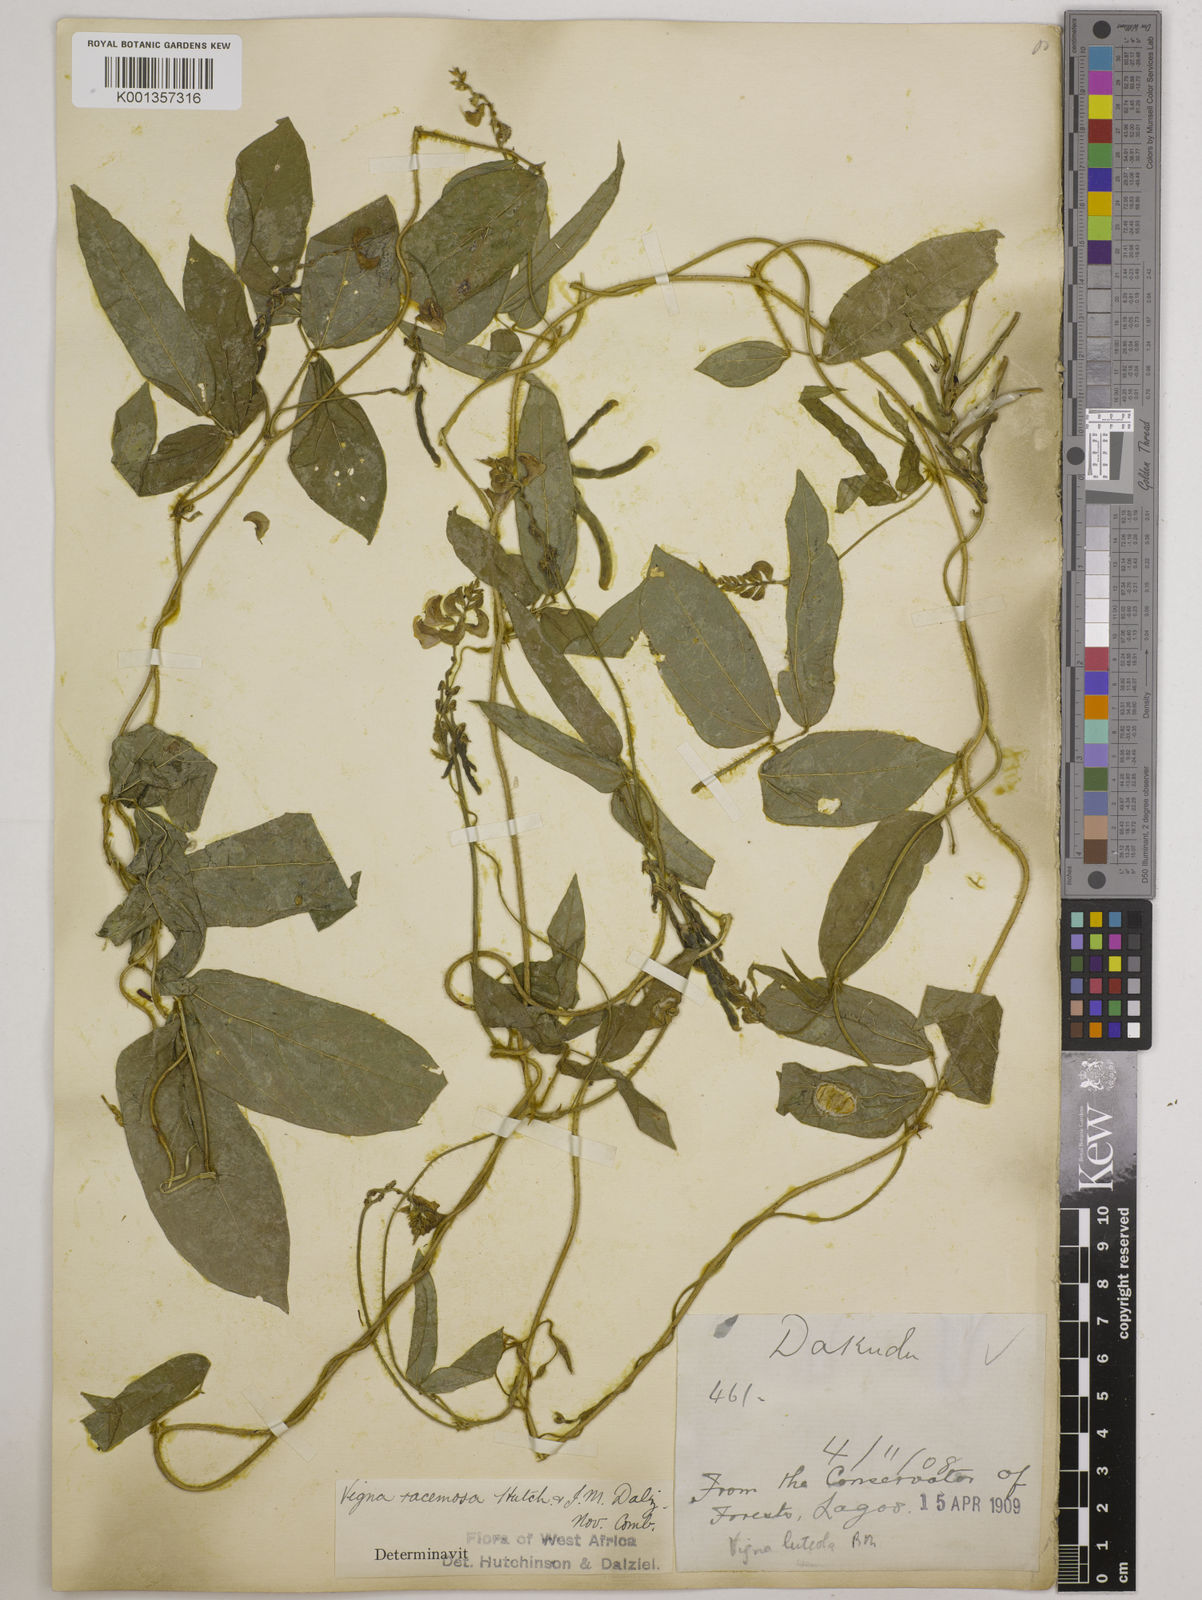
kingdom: Plantae
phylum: Tracheophyta
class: Magnoliopsida
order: Fabales
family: Fabaceae
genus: Vigna
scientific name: Vigna racemosa
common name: Beans not eaten
